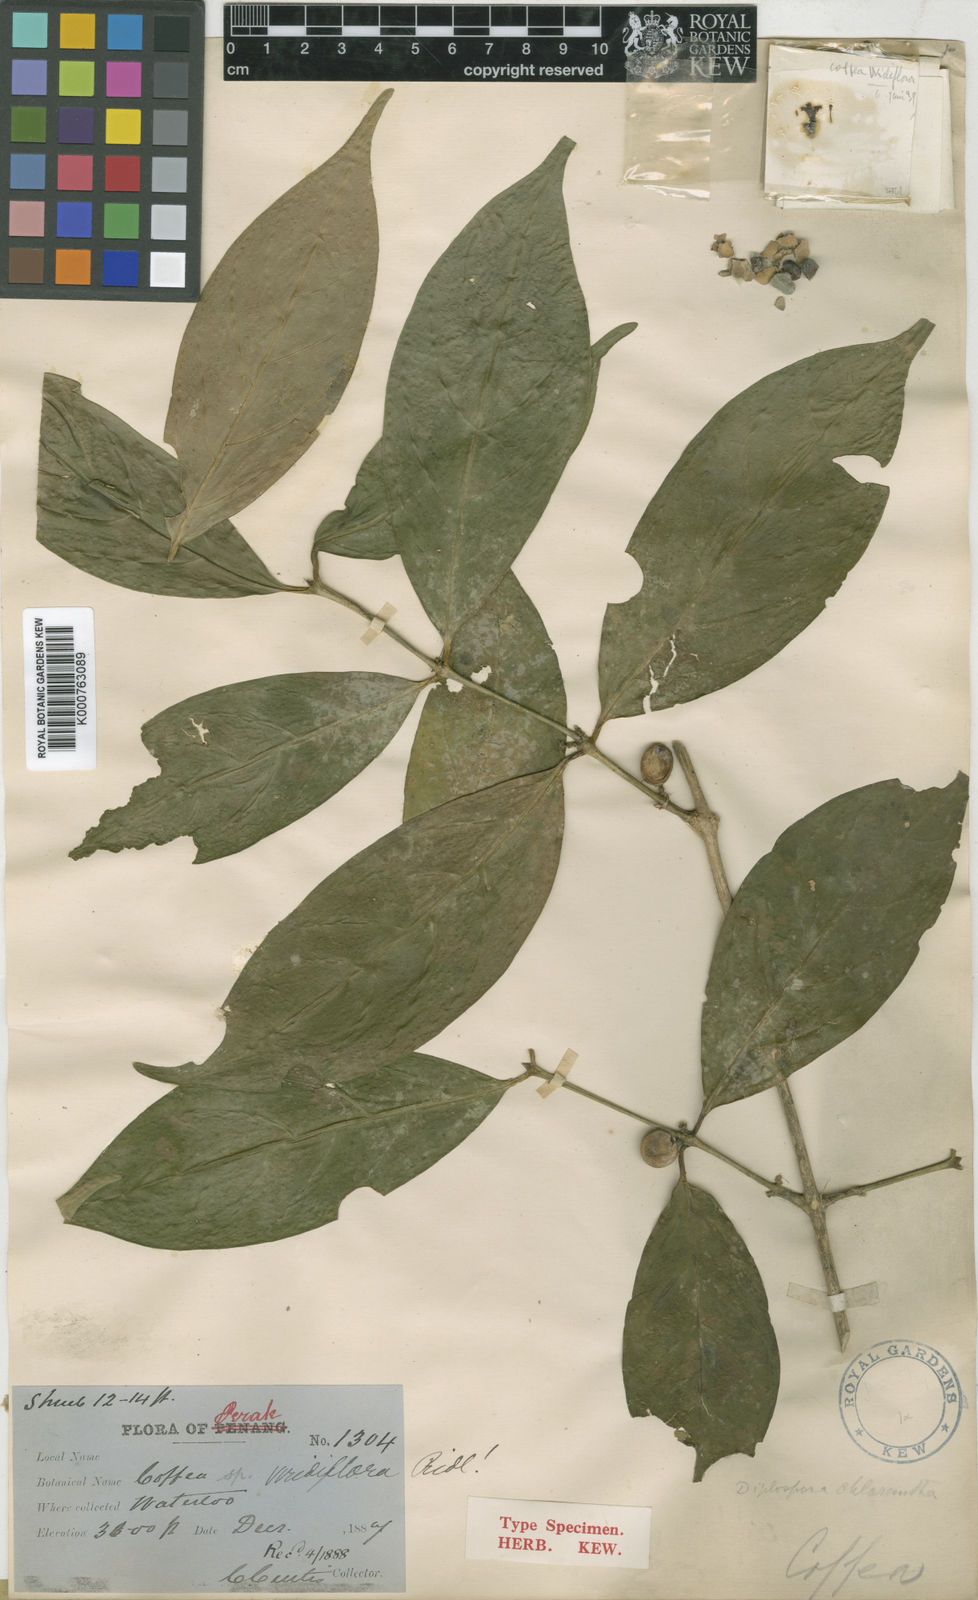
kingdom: Plantae
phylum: Tracheophyta
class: Magnoliopsida
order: Gentianales
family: Rubiaceae
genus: Diplospora
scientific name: Diplospora wrayi
